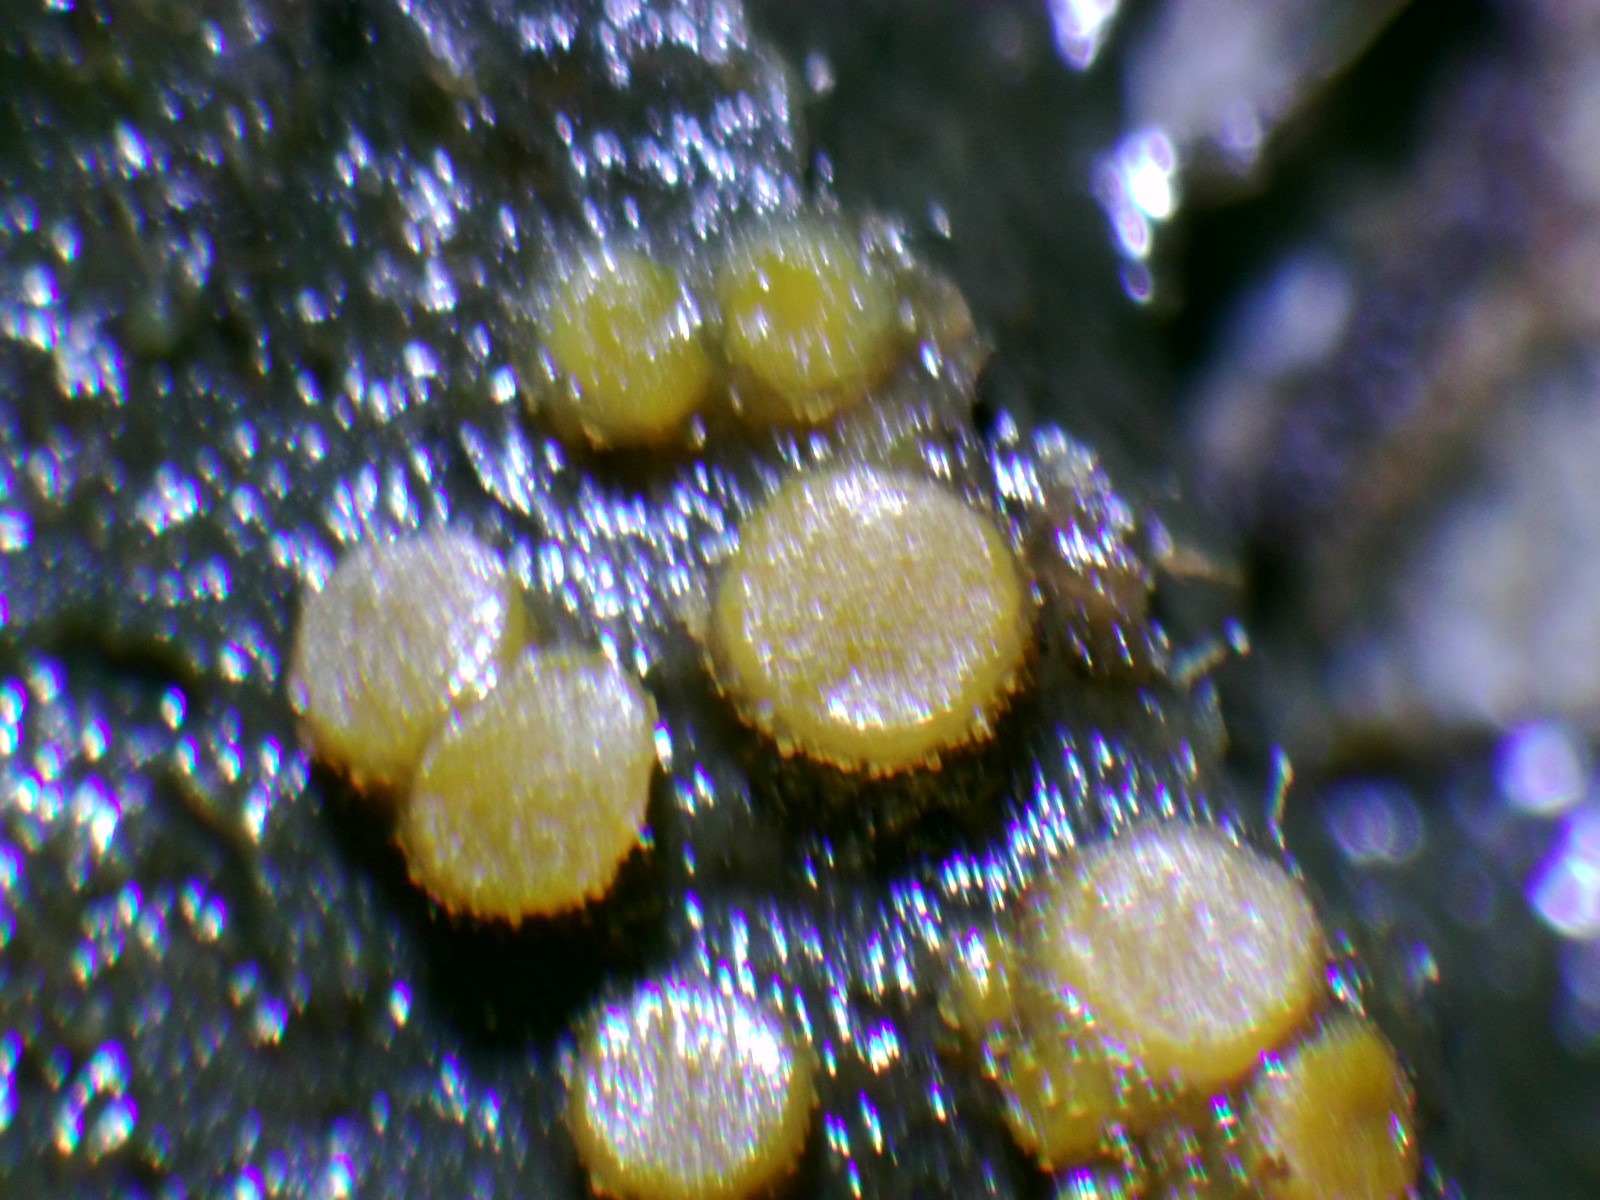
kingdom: Fungi
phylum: Ascomycota
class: Pezizomycetes
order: Pezizales
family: Pyronemataceae
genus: Cheilymenia
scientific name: Cheilymenia granulata
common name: møgbæger
